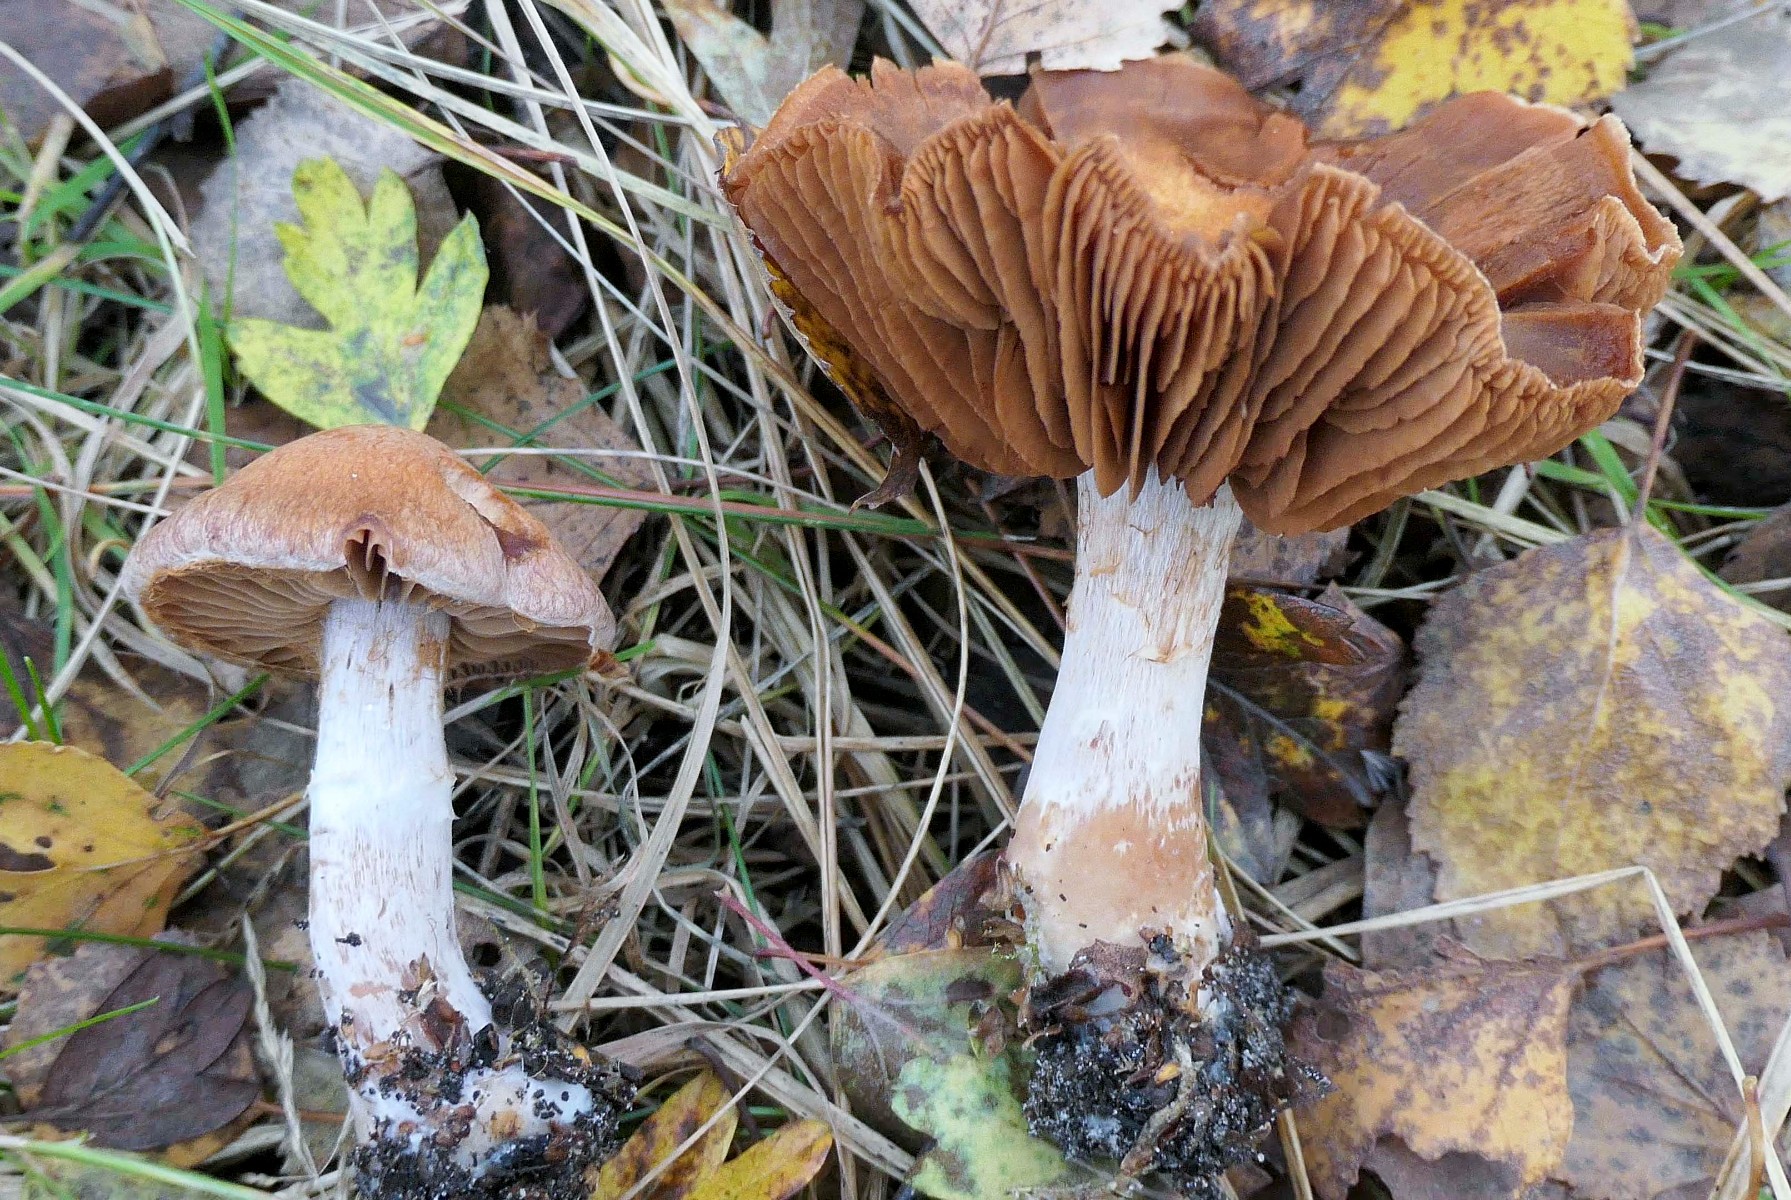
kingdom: Fungi
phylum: Basidiomycota
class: Agaricomycetes
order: Agaricales
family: Cortinariaceae
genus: Cortinarius
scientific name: Cortinarius bivelus
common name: orangebrun slørhat
